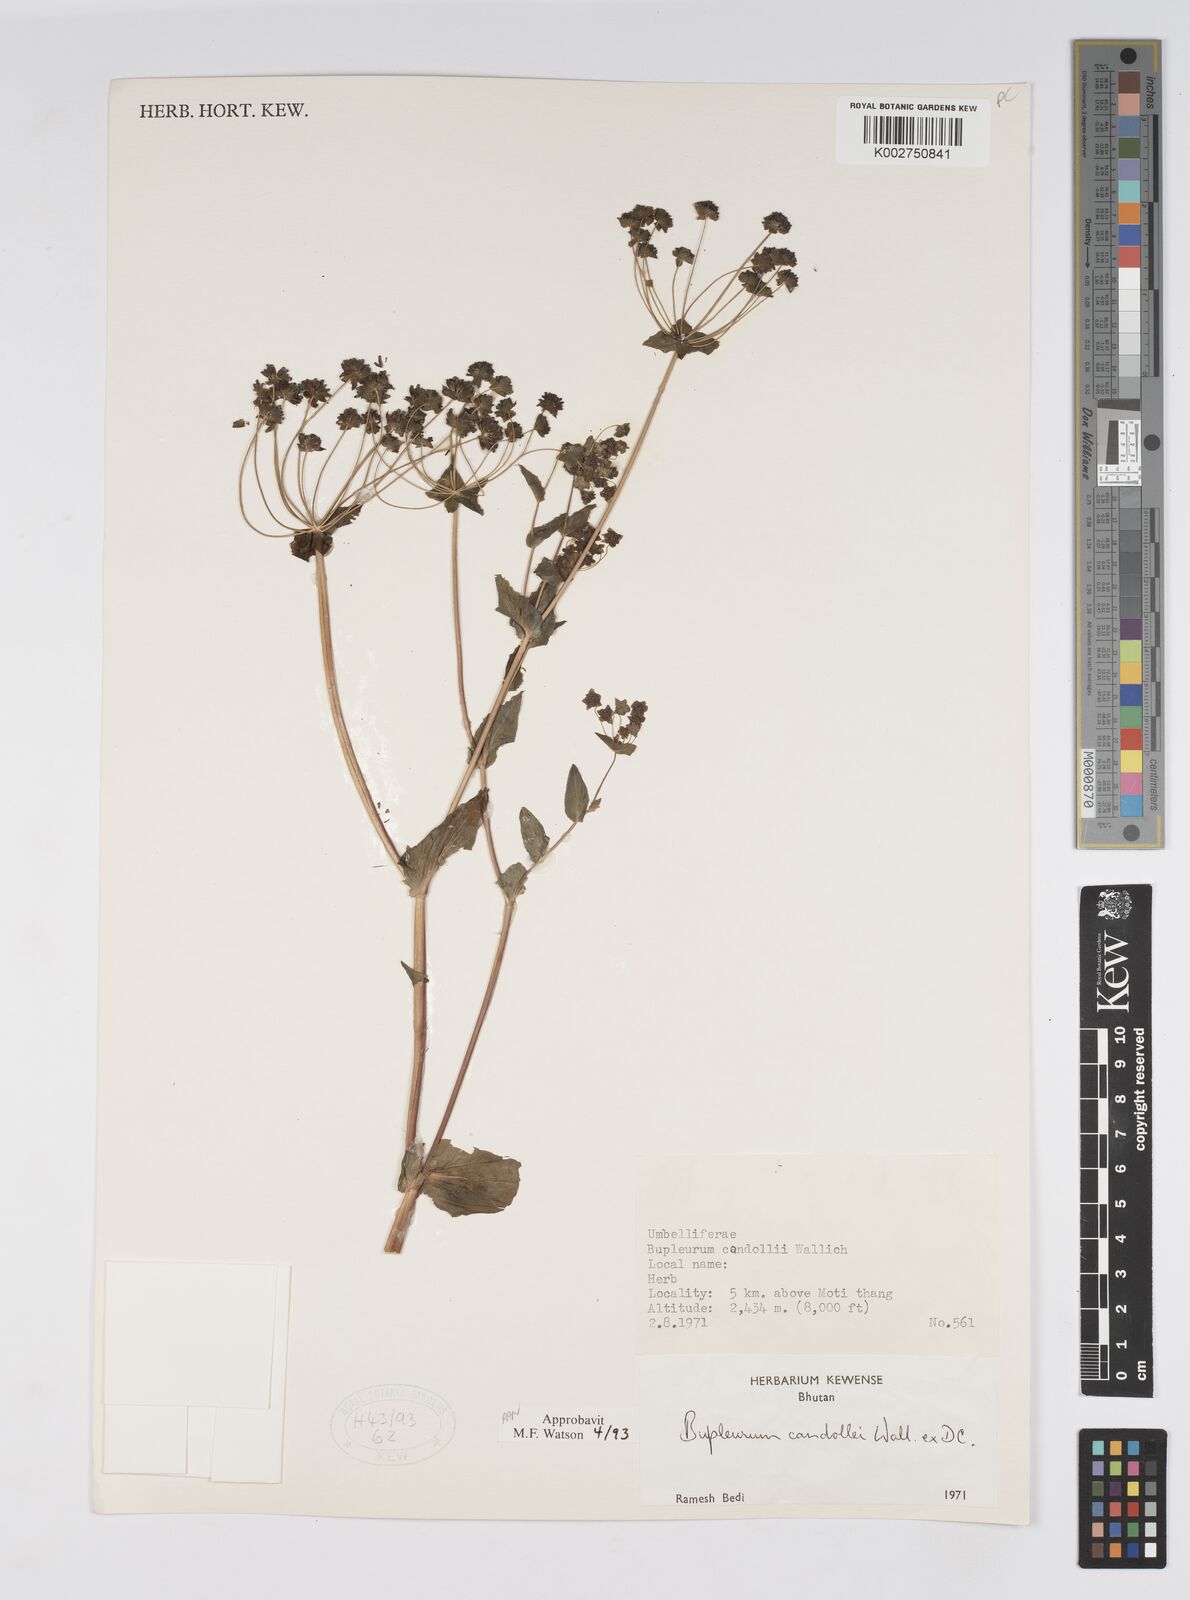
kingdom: Plantae
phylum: Tracheophyta
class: Magnoliopsida
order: Apiales
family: Apiaceae
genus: Bupleurum
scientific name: Bupleurum candollei
